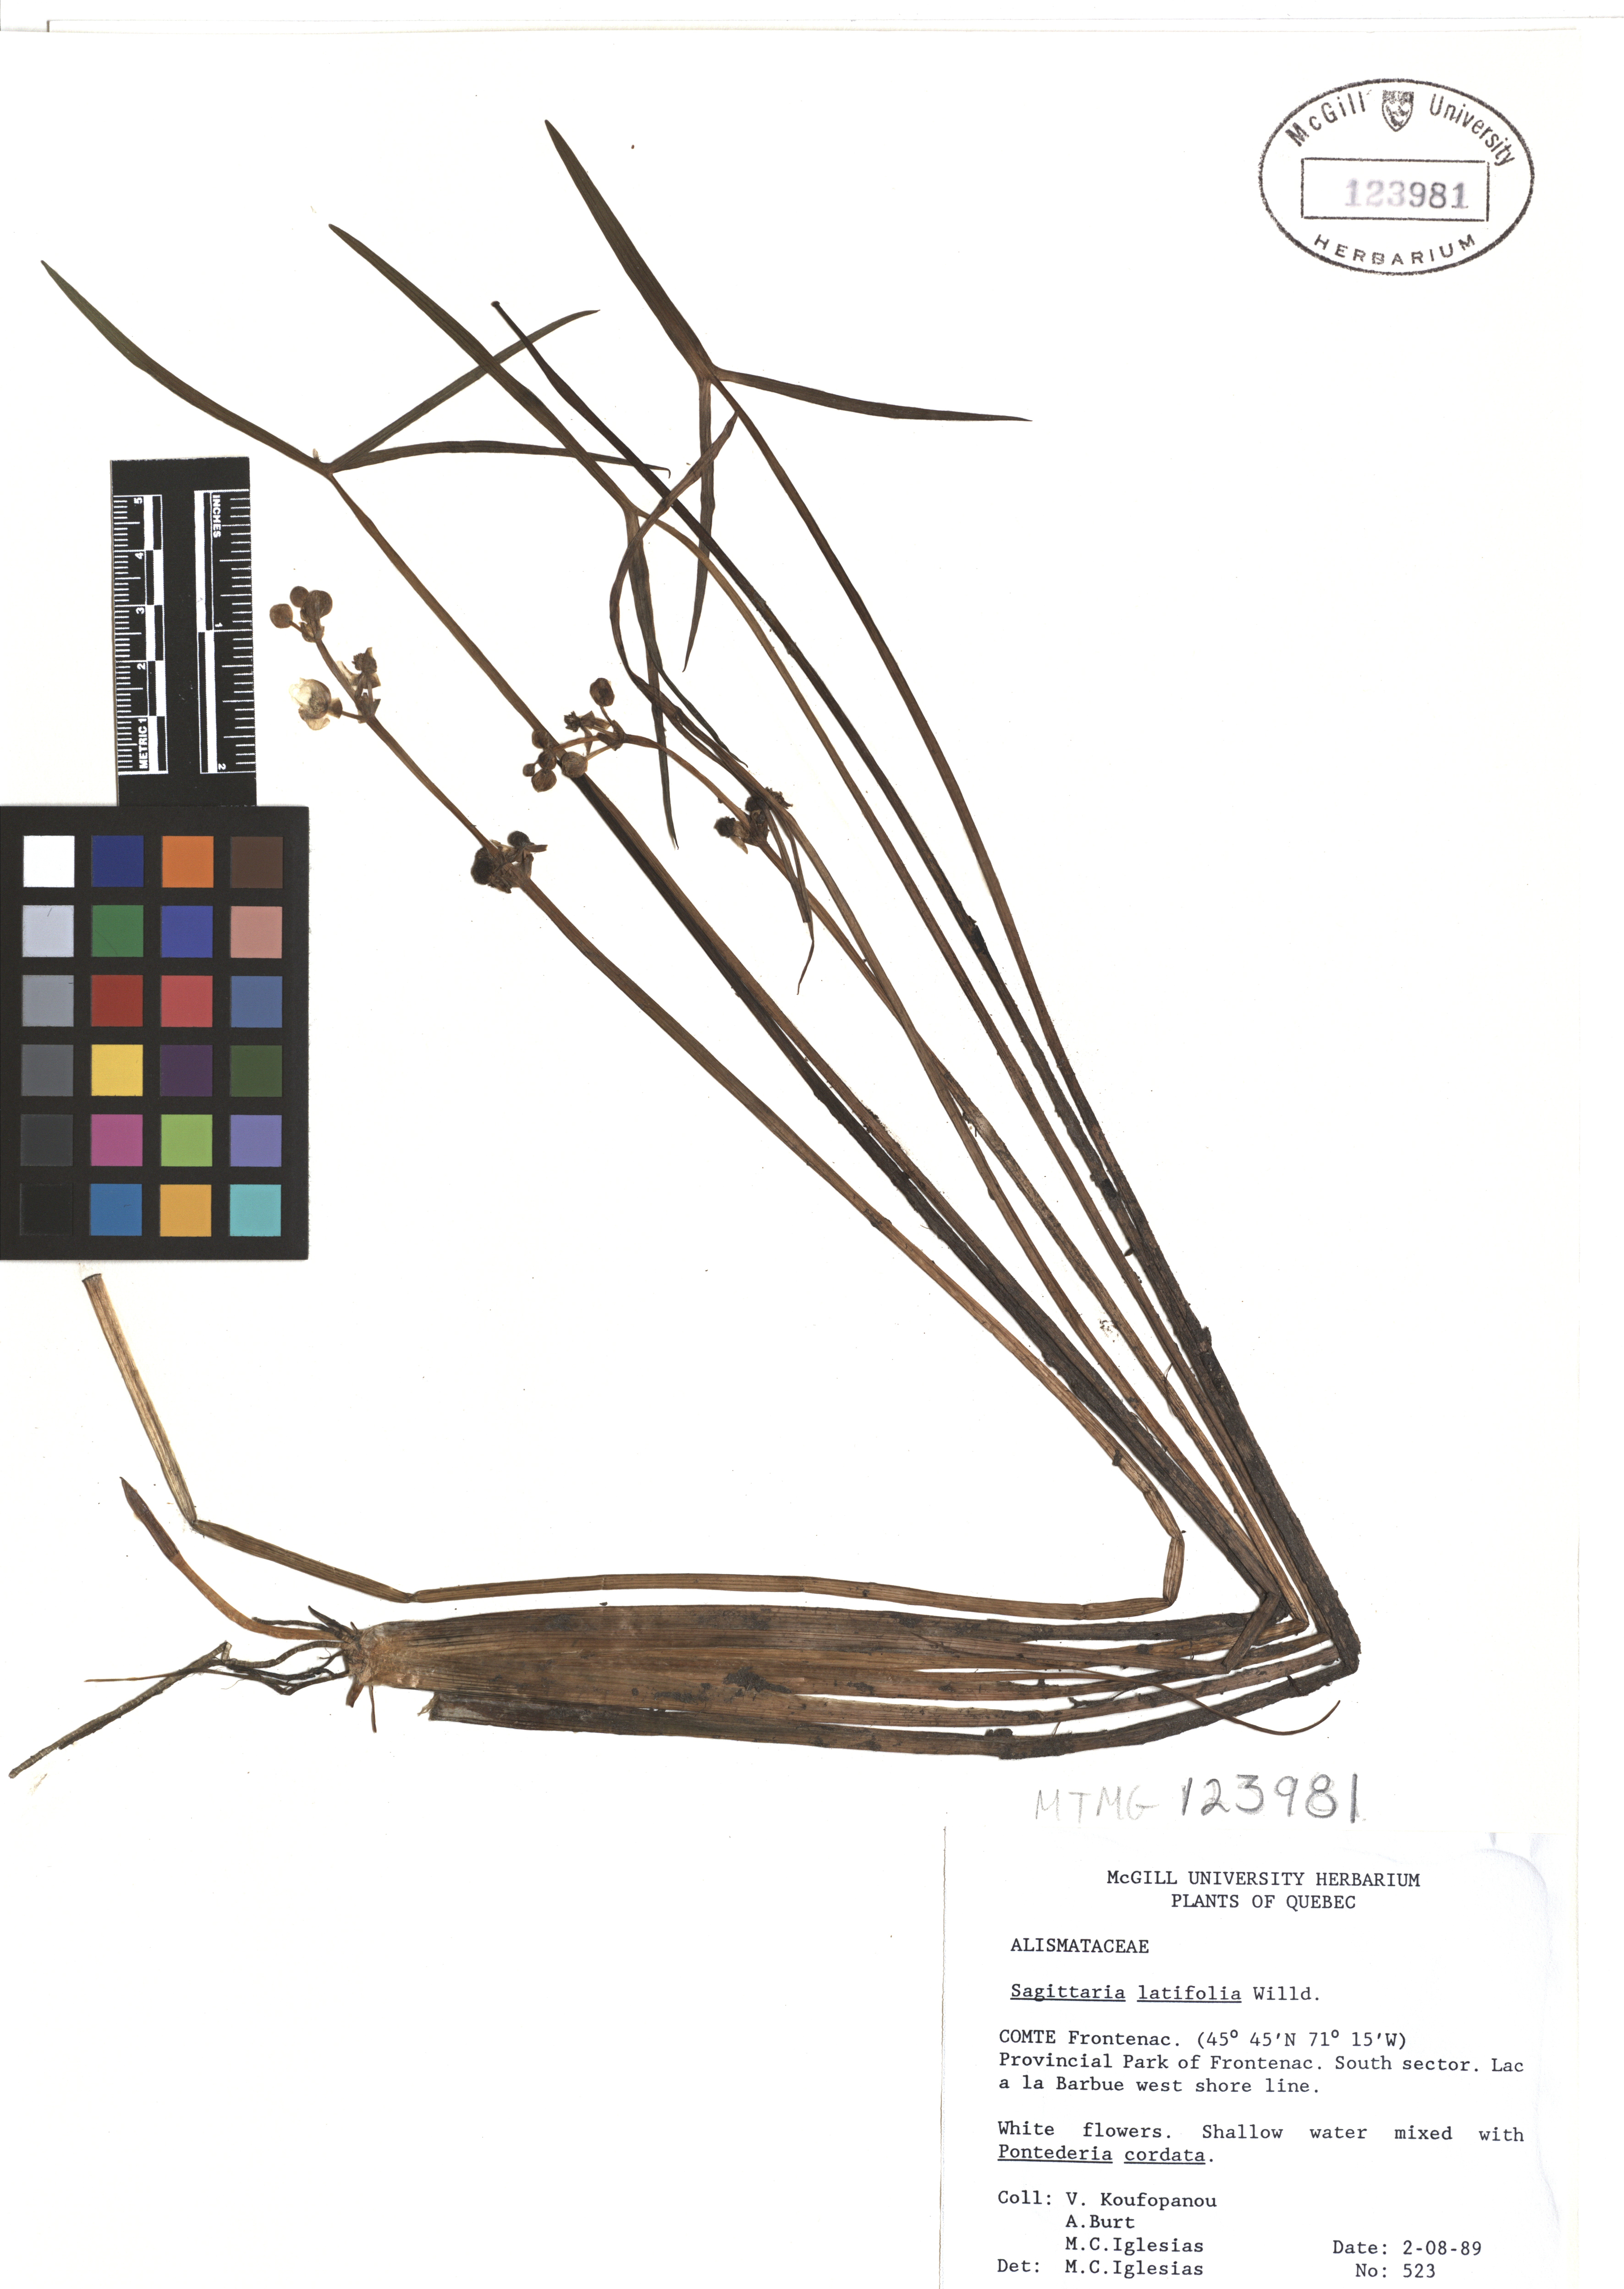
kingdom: Plantae
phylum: Tracheophyta
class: Liliopsida
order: Alismatales
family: Alismataceae
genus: Sagittaria
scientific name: Sagittaria latifolia
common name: Duck-potato
